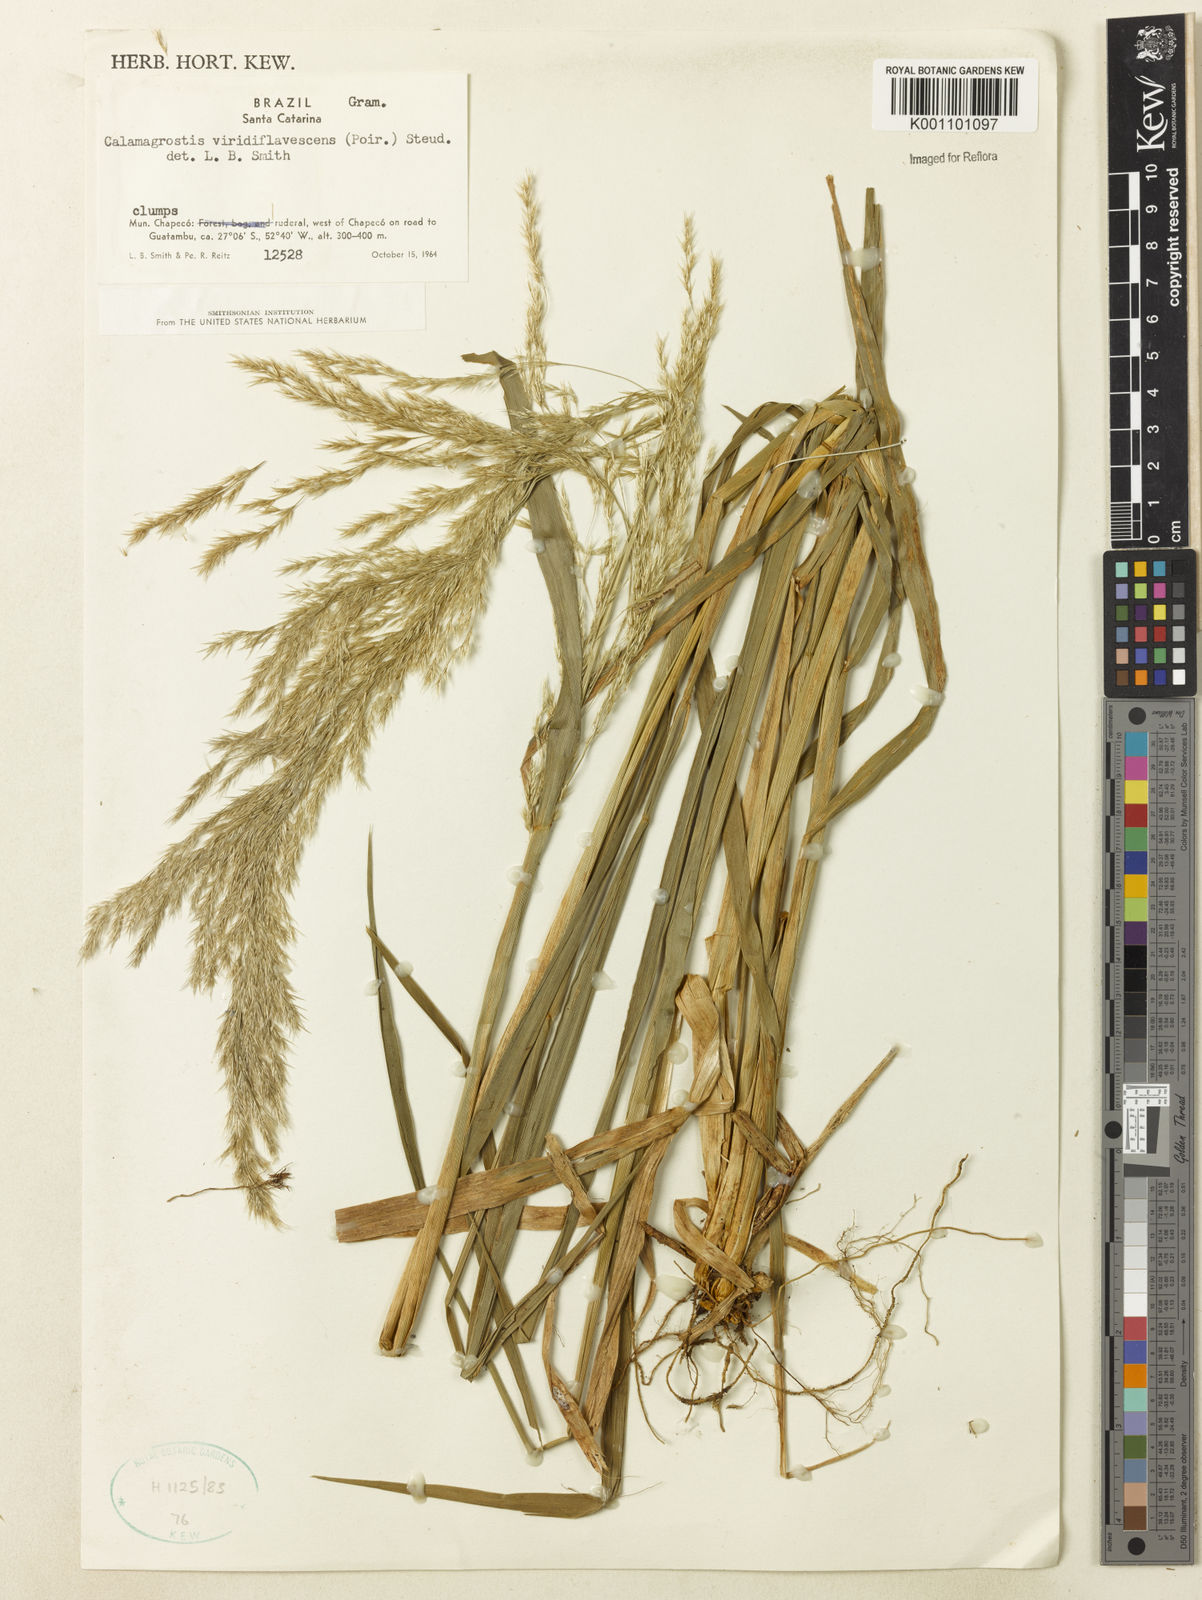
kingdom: Plantae
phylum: Tracheophyta
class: Liliopsida
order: Poales
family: Poaceae
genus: Cinnagrostis
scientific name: Cinnagrostis viridiflavescens
